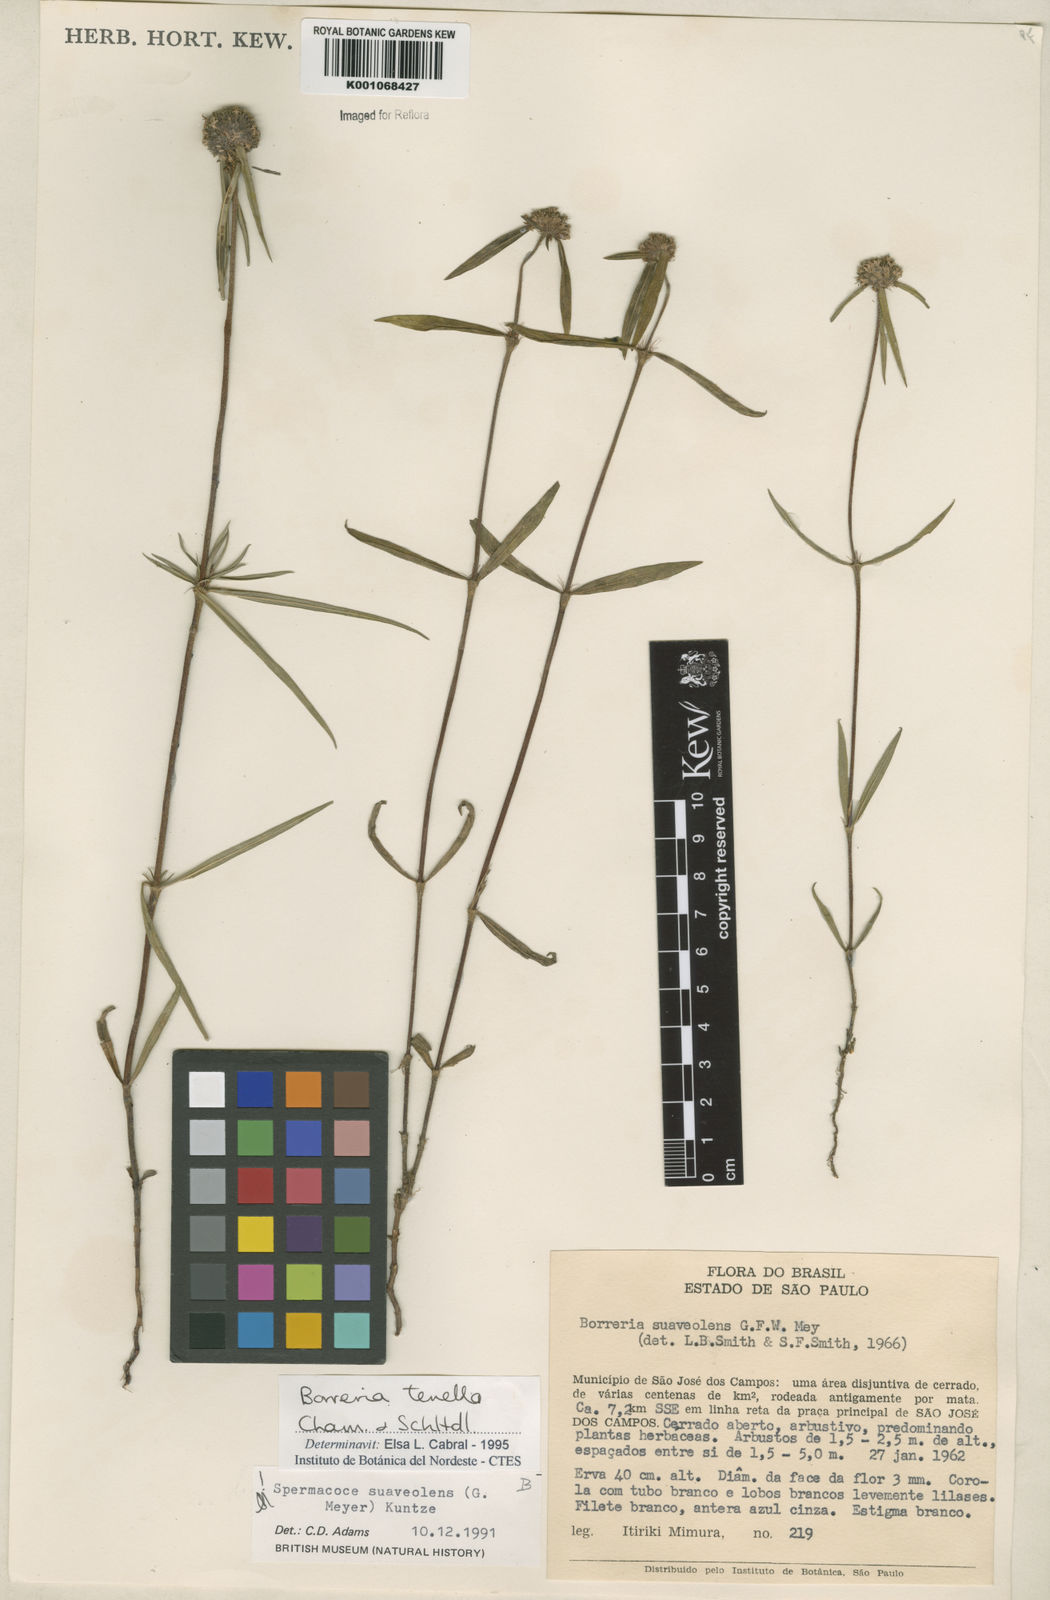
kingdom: Plantae
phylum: Tracheophyta
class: Magnoliopsida
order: Gentianales
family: Rubiaceae
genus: Spermacoce
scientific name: Spermacoce suaveolens
